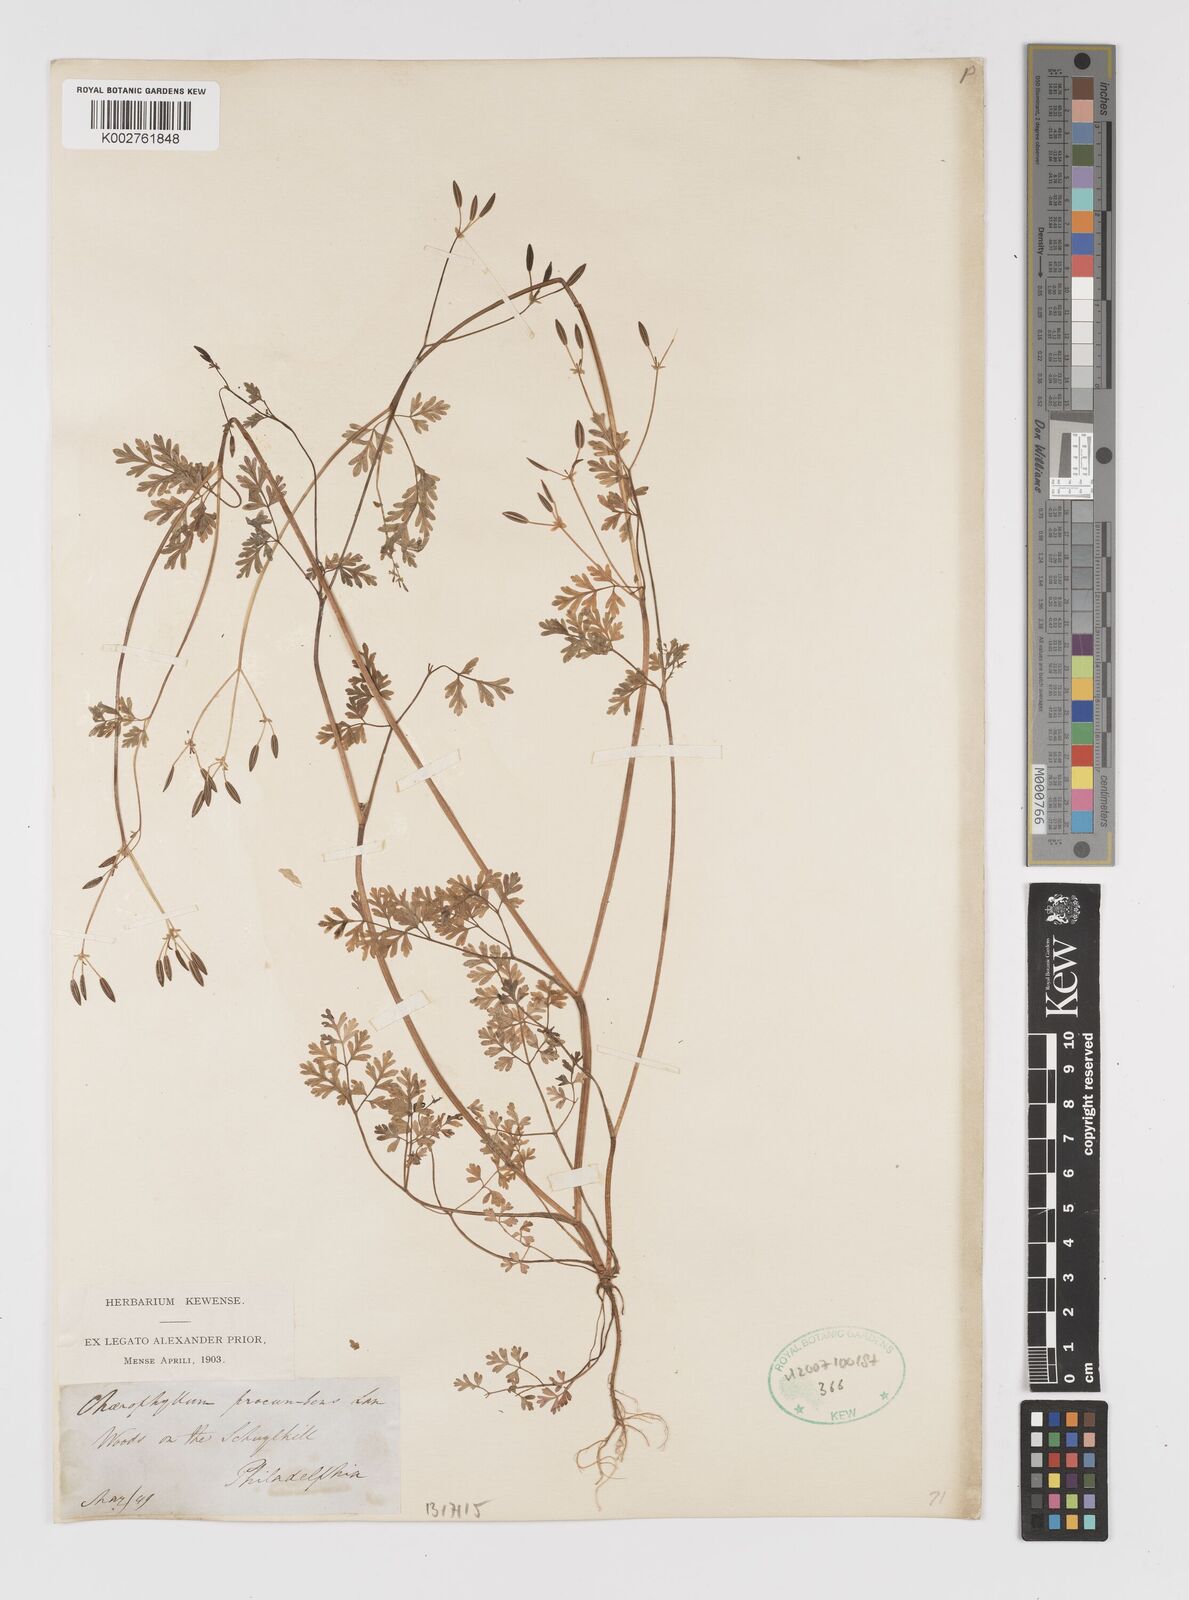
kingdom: Plantae
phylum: Tracheophyta
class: Magnoliopsida
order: Apiales
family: Apiaceae
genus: Chaerophyllum
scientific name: Chaerophyllum procumbens
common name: Spreading chervil
